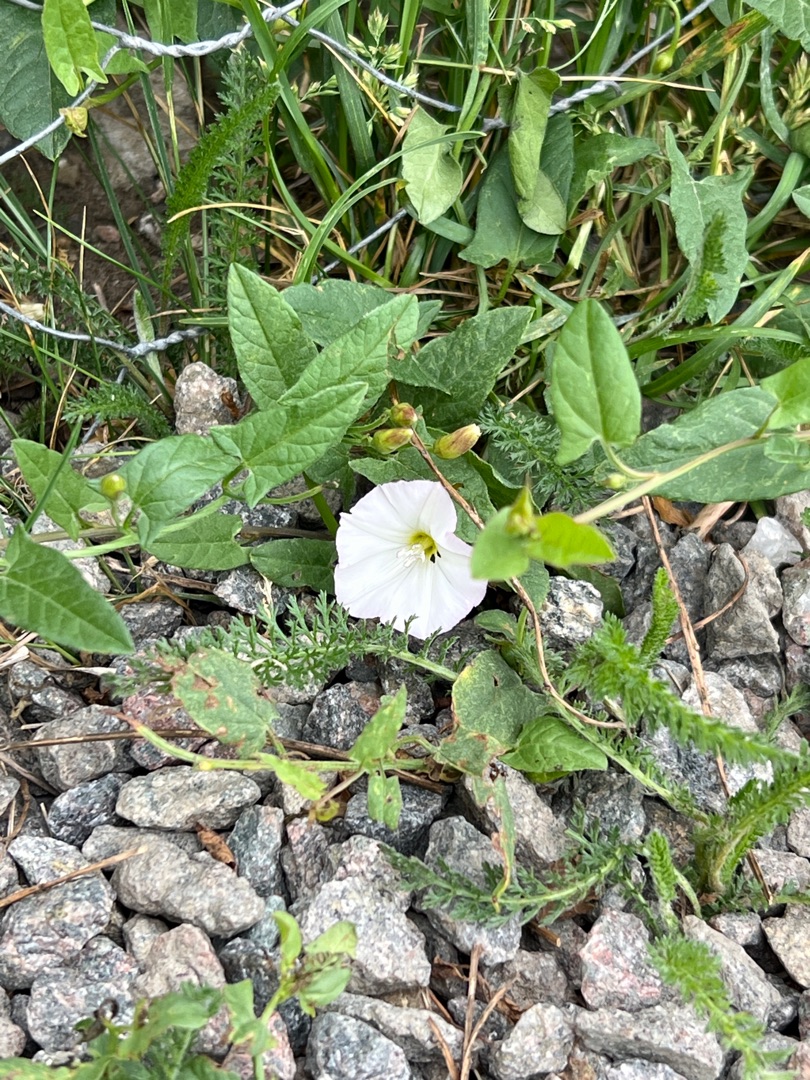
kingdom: Plantae
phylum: Tracheophyta
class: Magnoliopsida
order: Solanales
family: Convolvulaceae
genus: Convolvulus
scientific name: Convolvulus arvensis
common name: Ager-snerle
